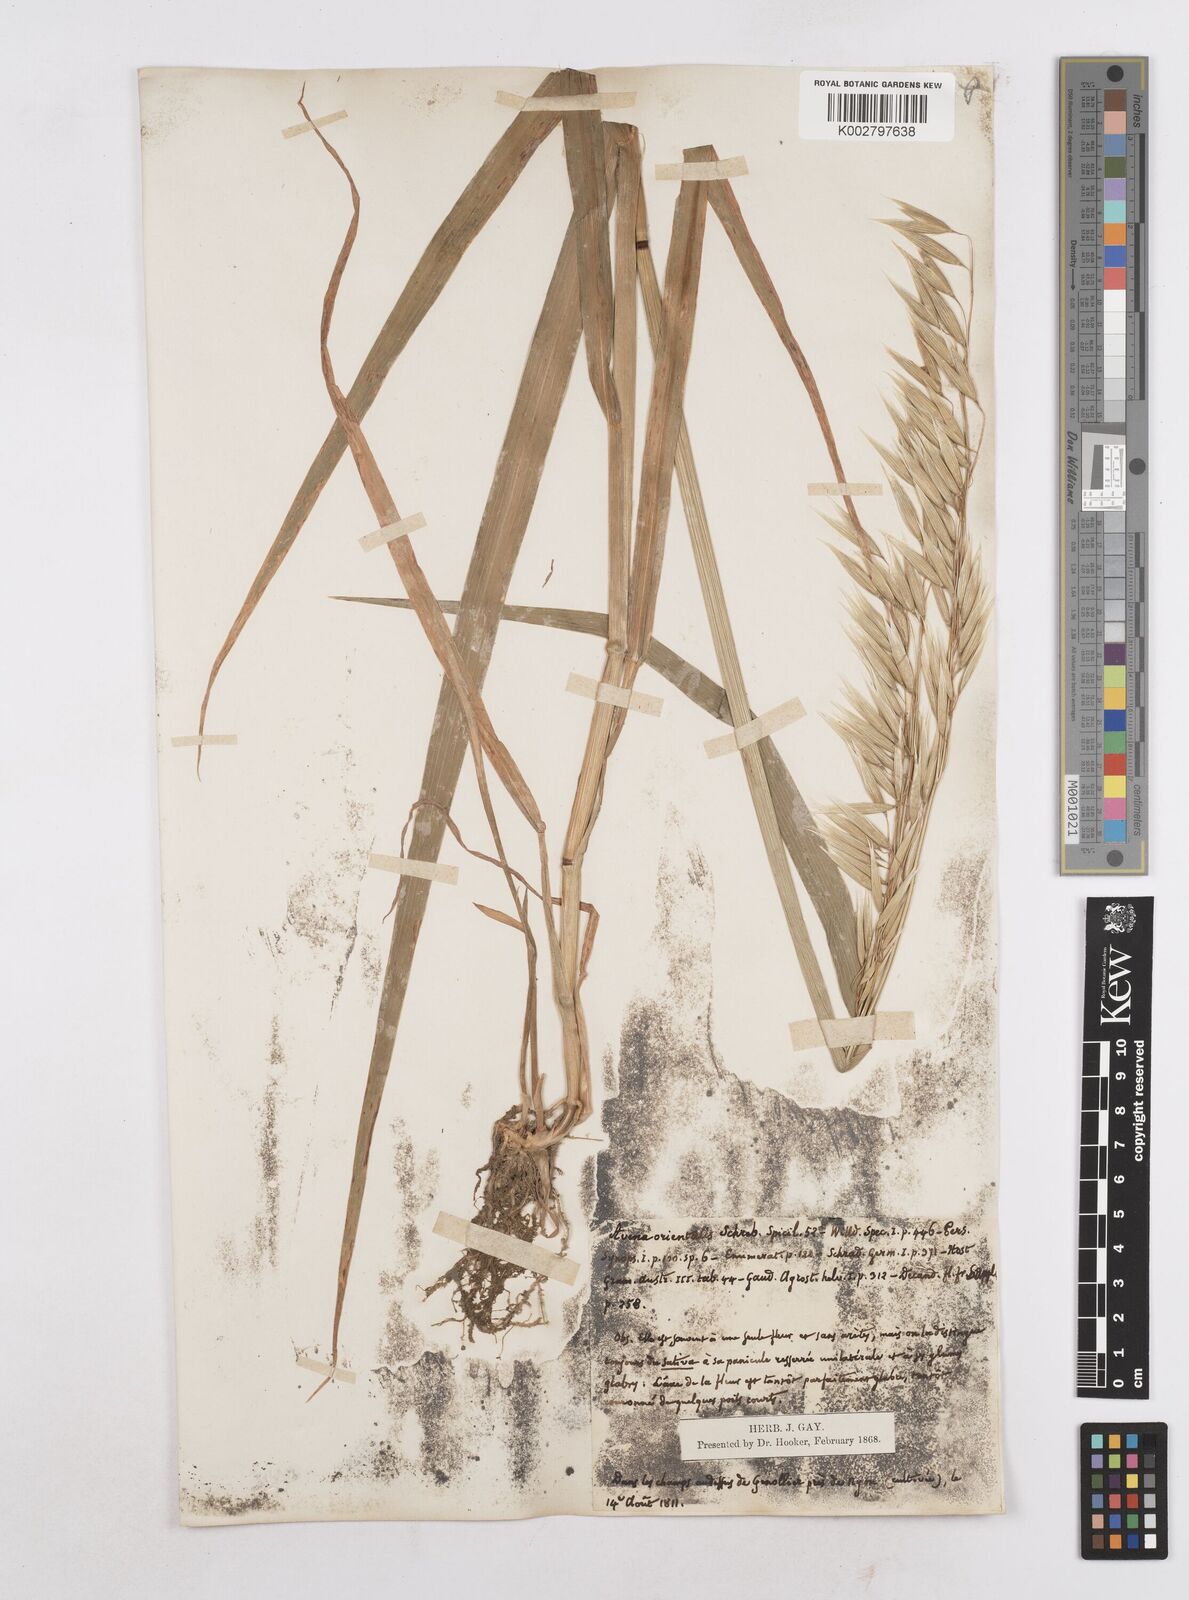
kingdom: Plantae
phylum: Tracheophyta
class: Liliopsida
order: Poales
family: Poaceae
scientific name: Poaceae
